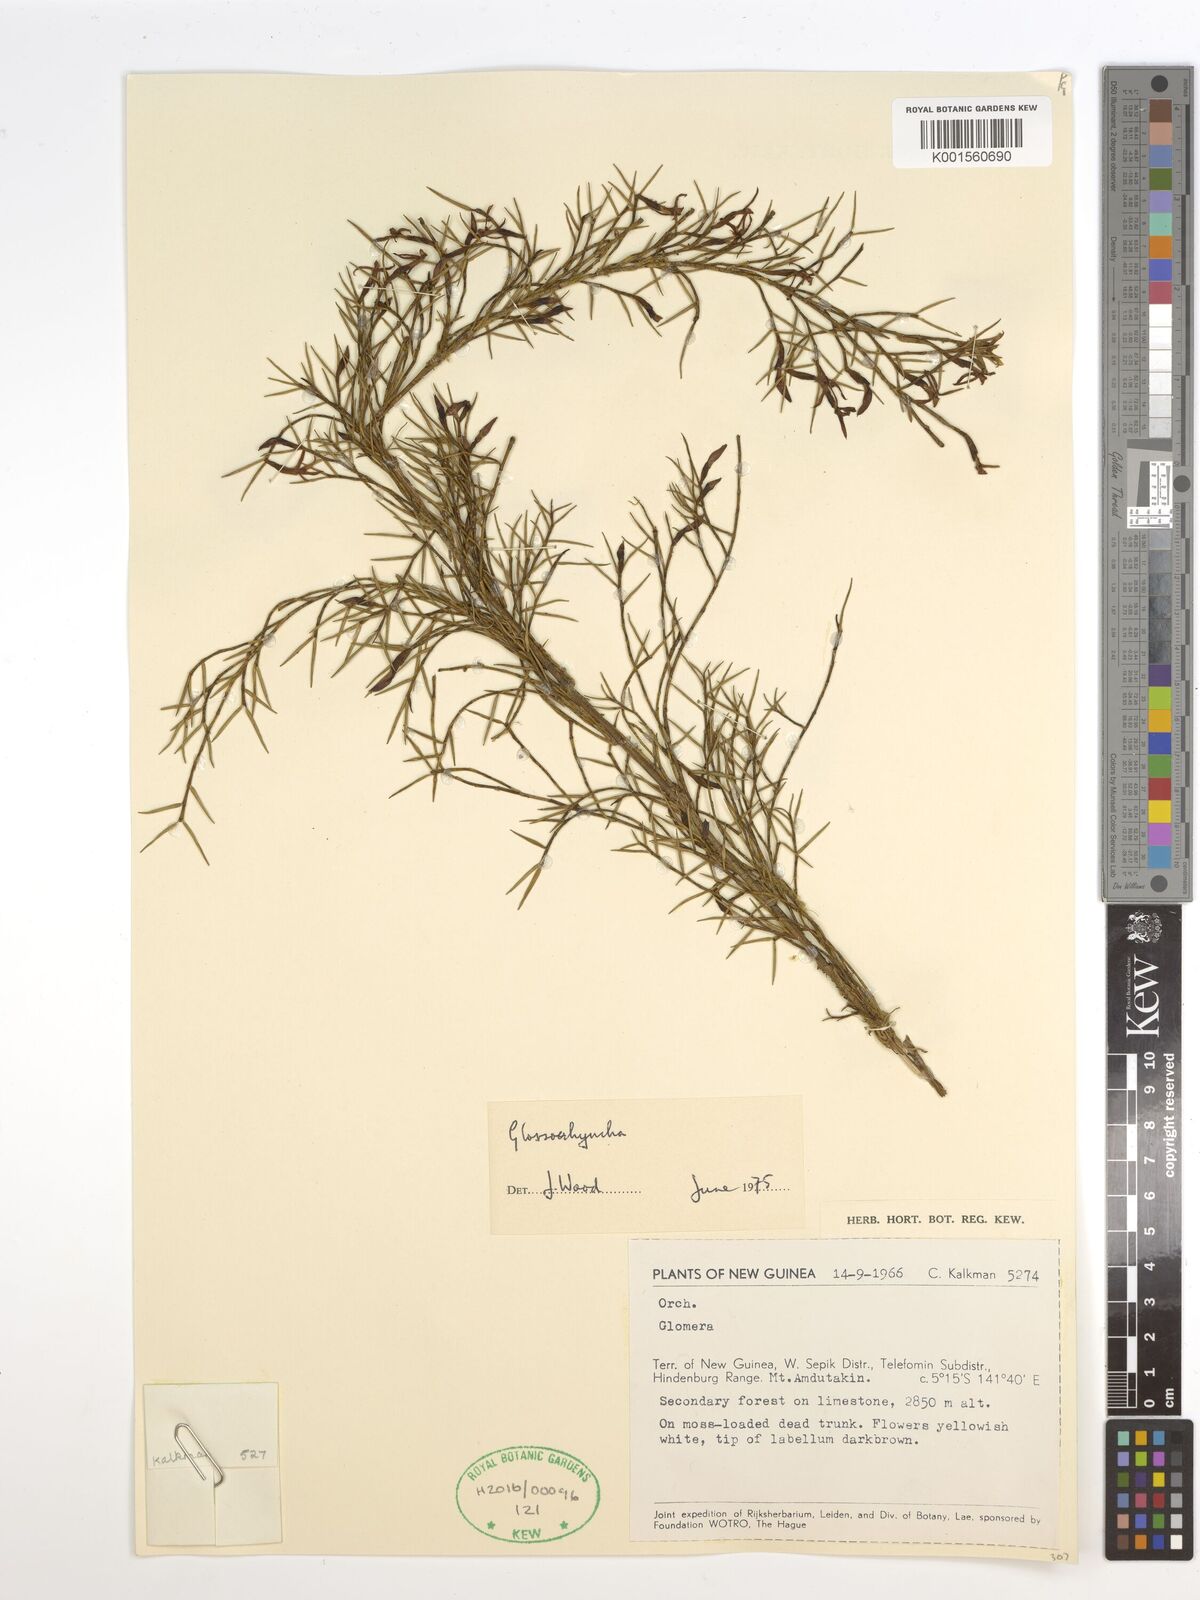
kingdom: Plantae
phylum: Tracheophyta
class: Liliopsida
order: Asparagales
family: Orchidaceae
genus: Glomera
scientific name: Glomera
